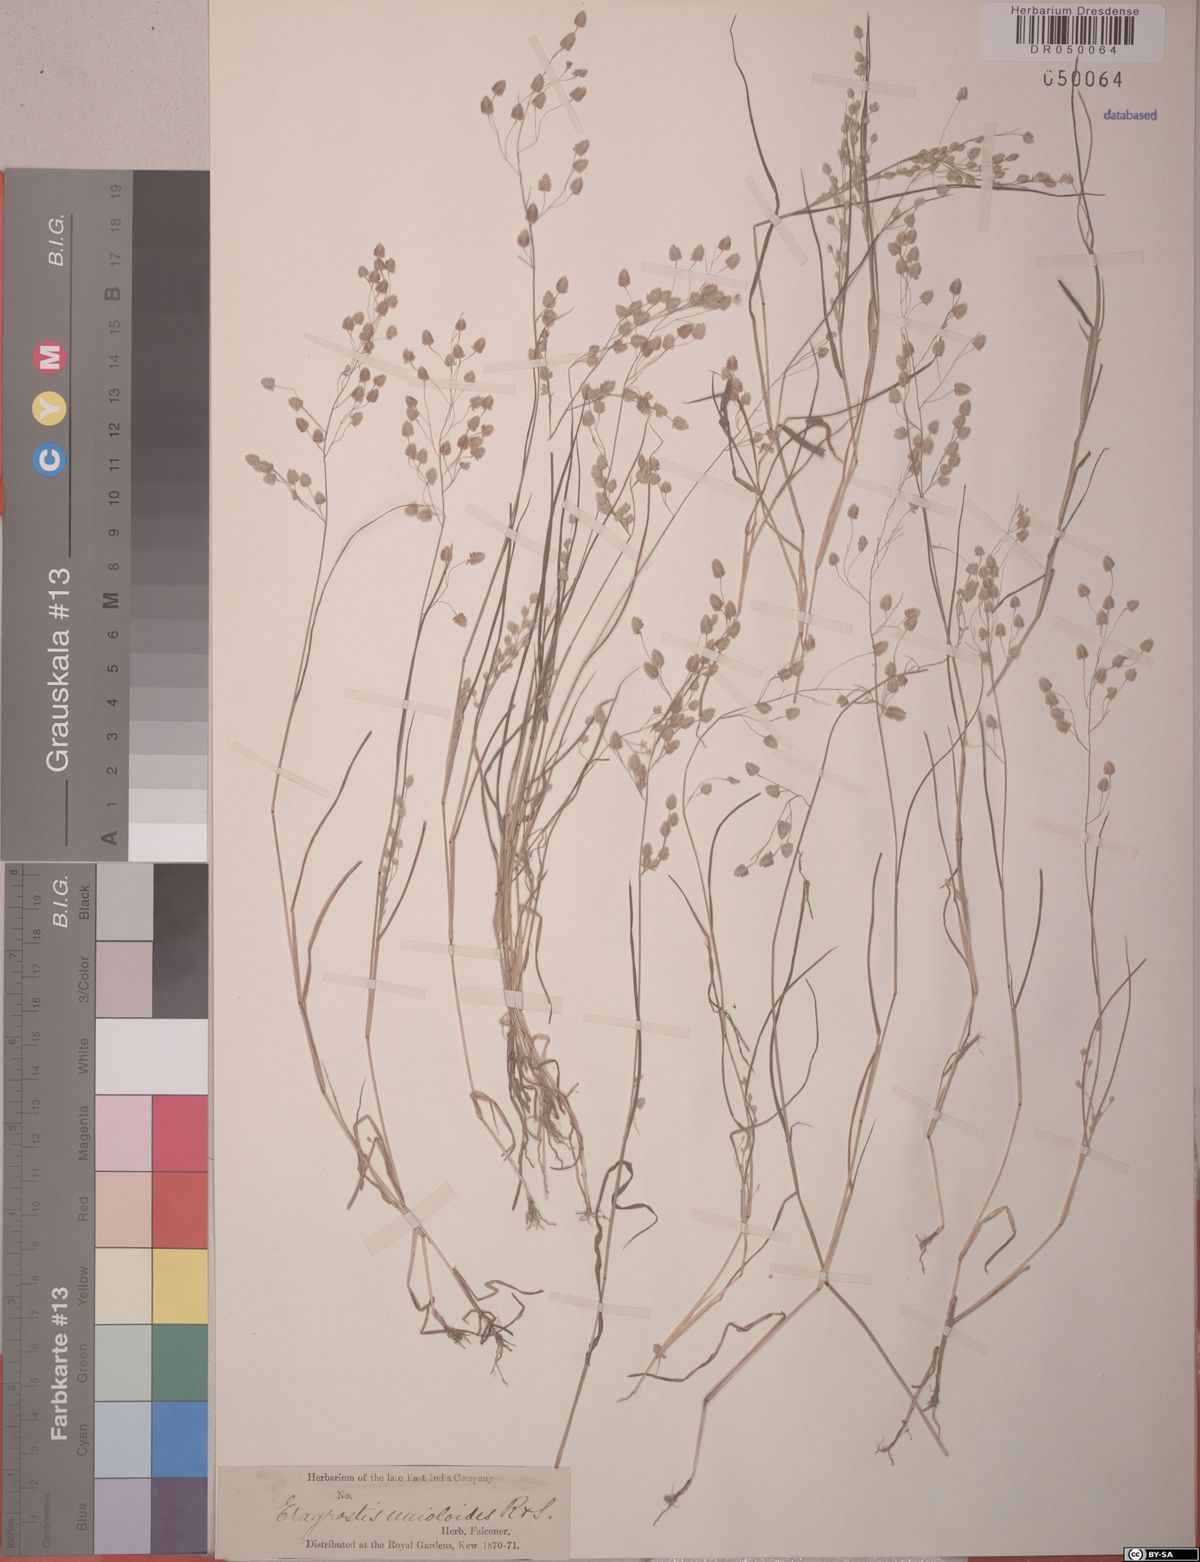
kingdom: Plantae
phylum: Tracheophyta
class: Liliopsida
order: Poales
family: Poaceae
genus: Eragrostis
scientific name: Eragrostis unioloides
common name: Chinese lovegrass
